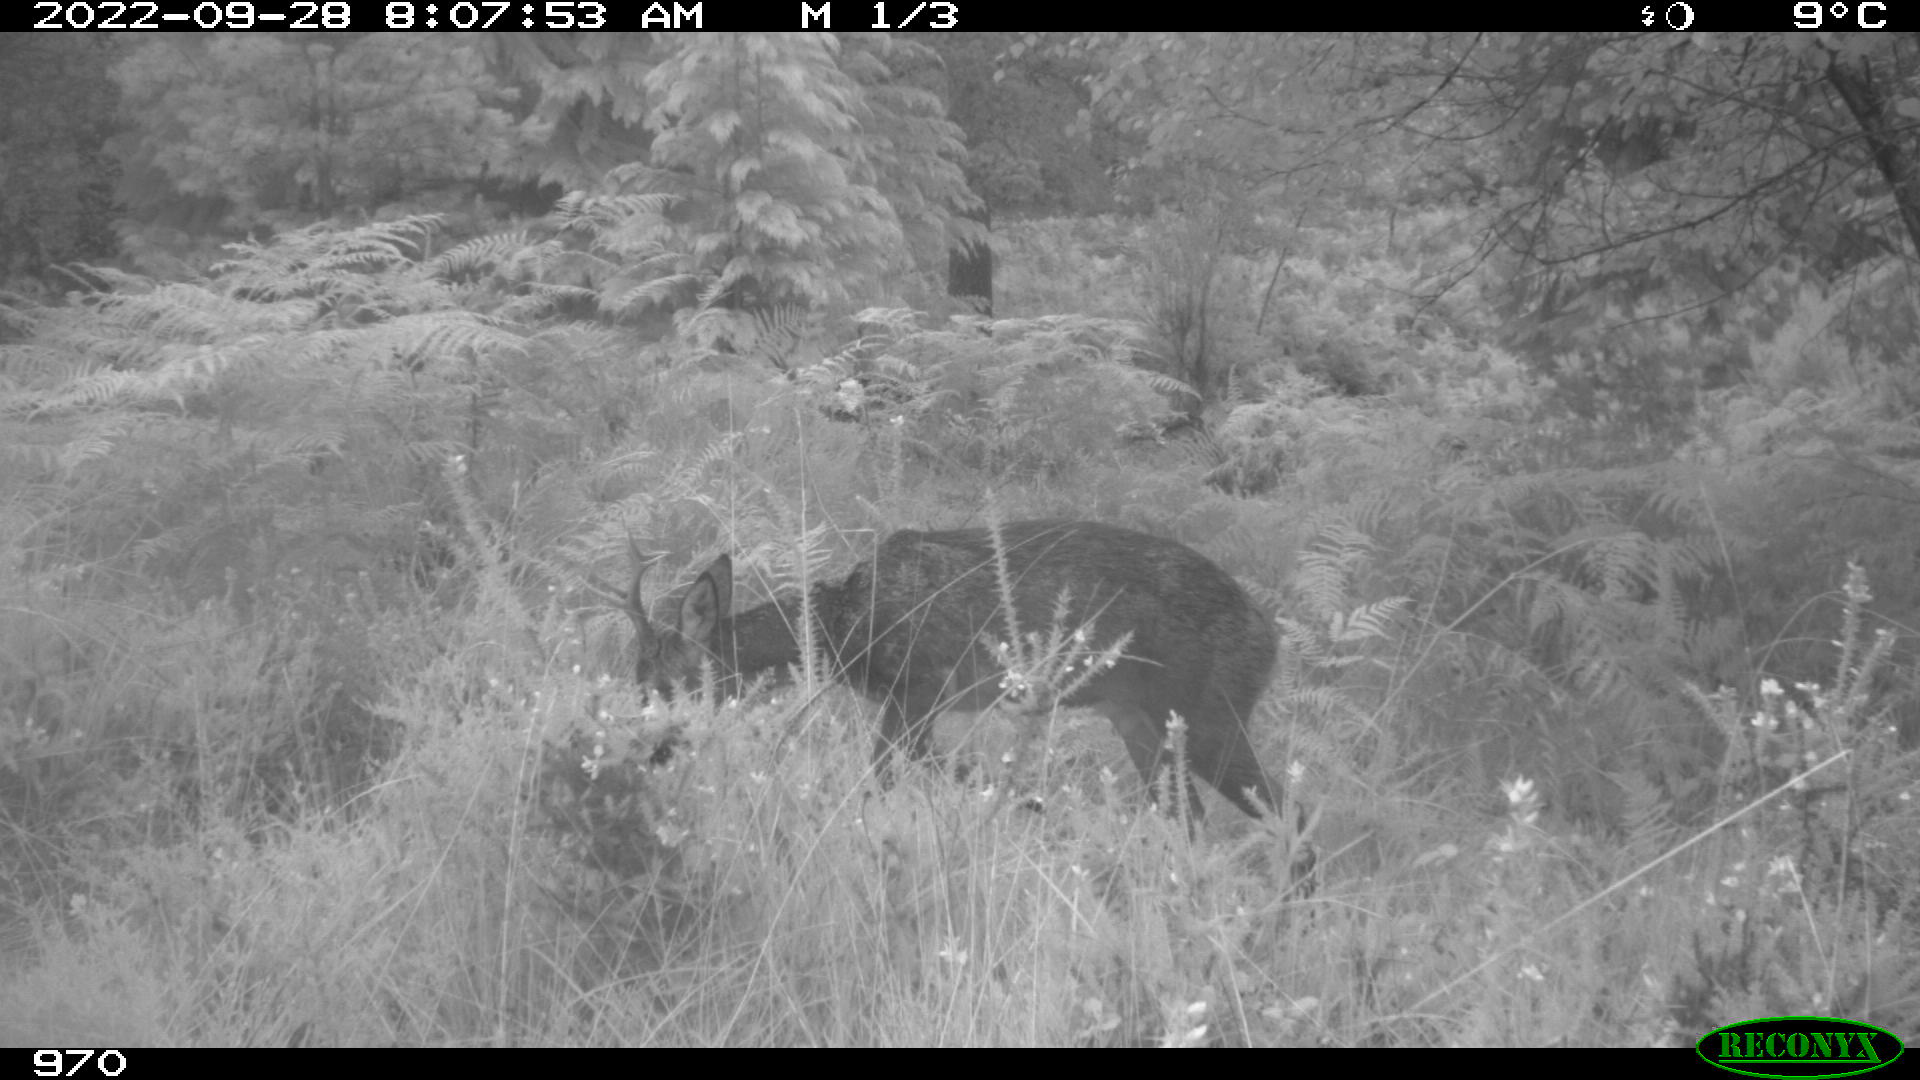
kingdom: Animalia
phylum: Chordata
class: Mammalia
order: Artiodactyla
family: Cervidae
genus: Capreolus
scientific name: Capreolus capreolus
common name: Western roe deer
